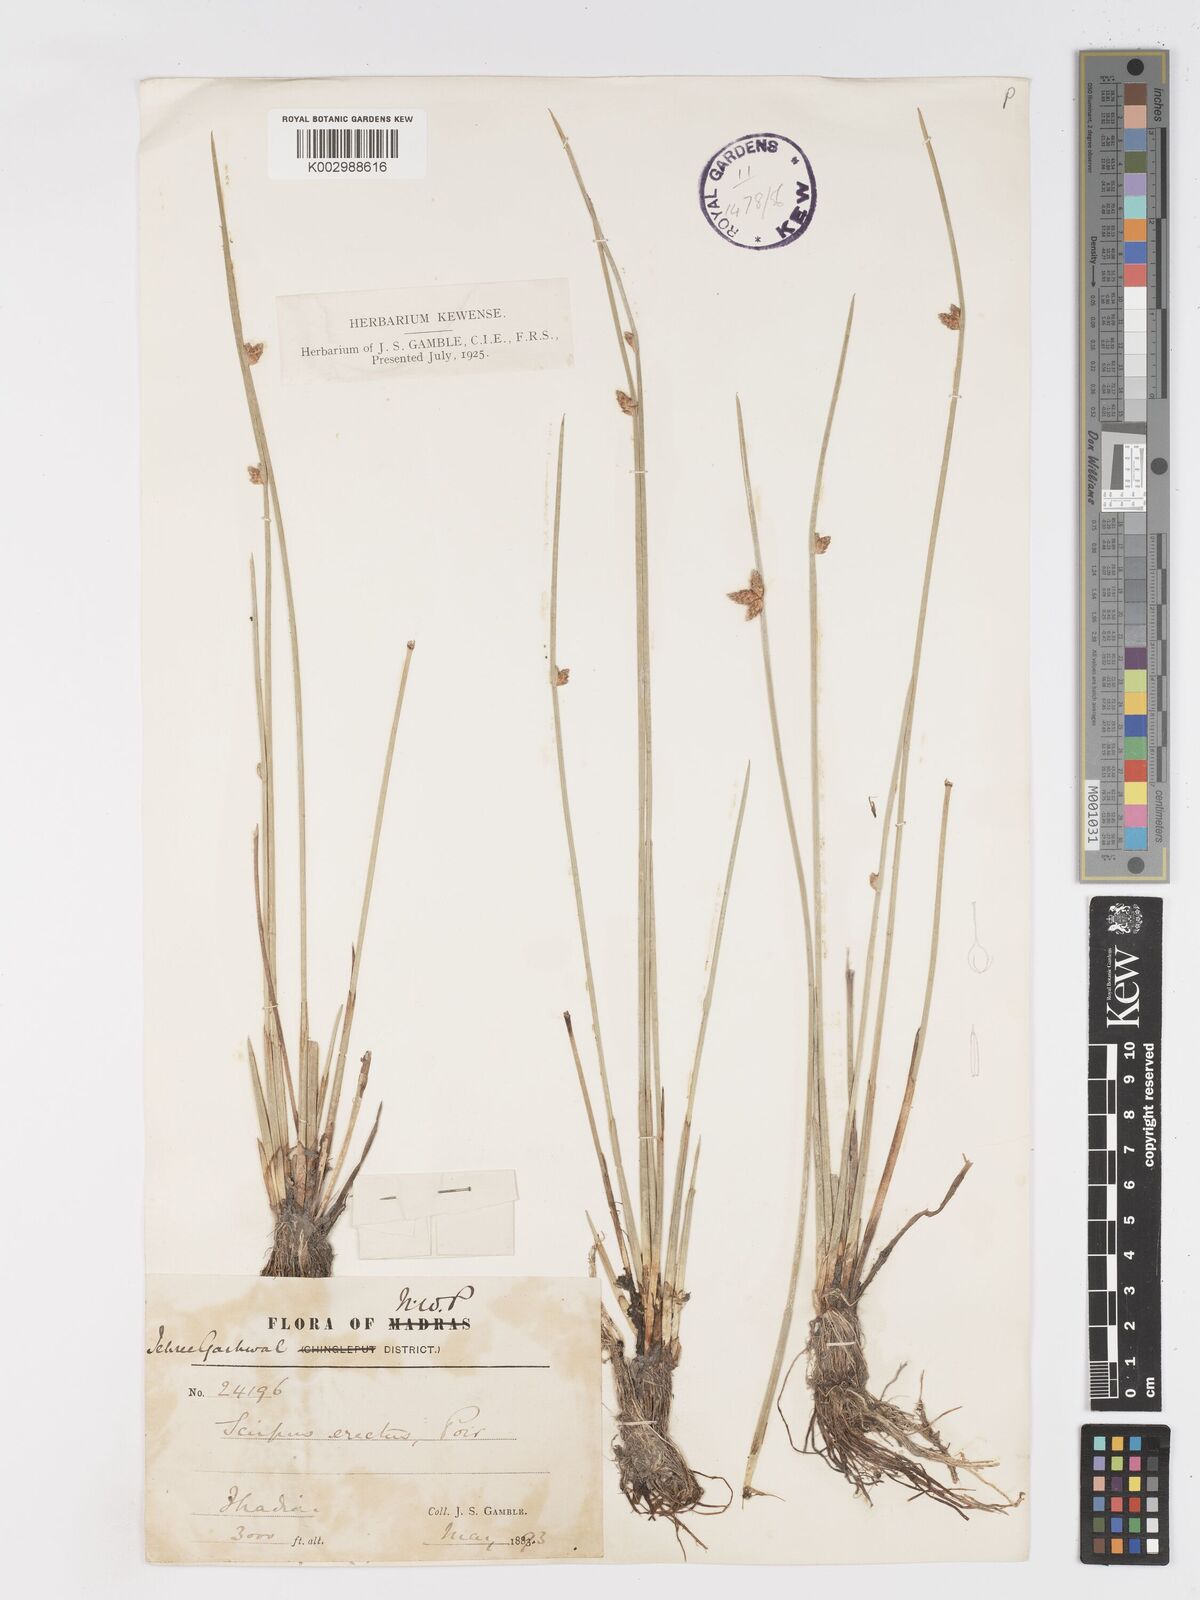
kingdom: Plantae
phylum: Tracheophyta
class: Liliopsida
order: Poales
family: Cyperaceae
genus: Schoenoplectiella
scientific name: Schoenoplectiella juncoides
